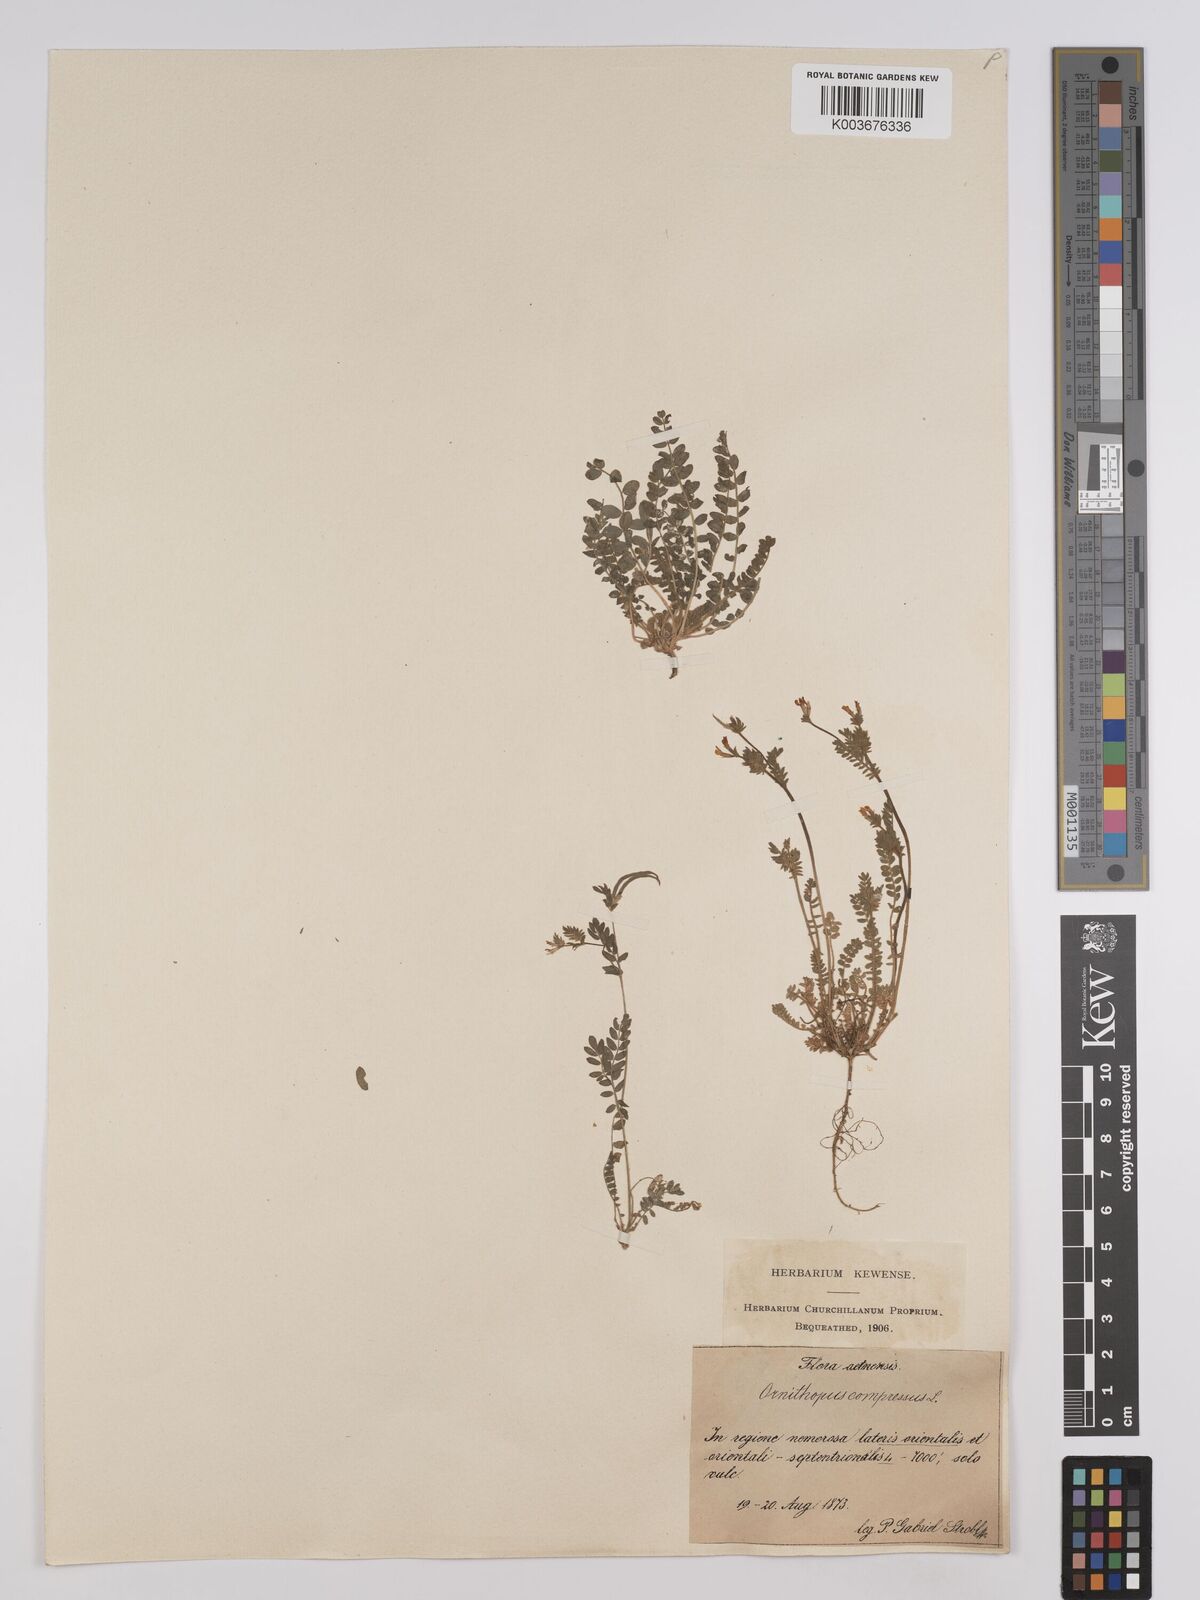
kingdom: Plantae
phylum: Tracheophyta
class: Magnoliopsida
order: Fabales
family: Fabaceae
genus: Ornithopus
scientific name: Ornithopus compressus
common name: Yellow serradella
